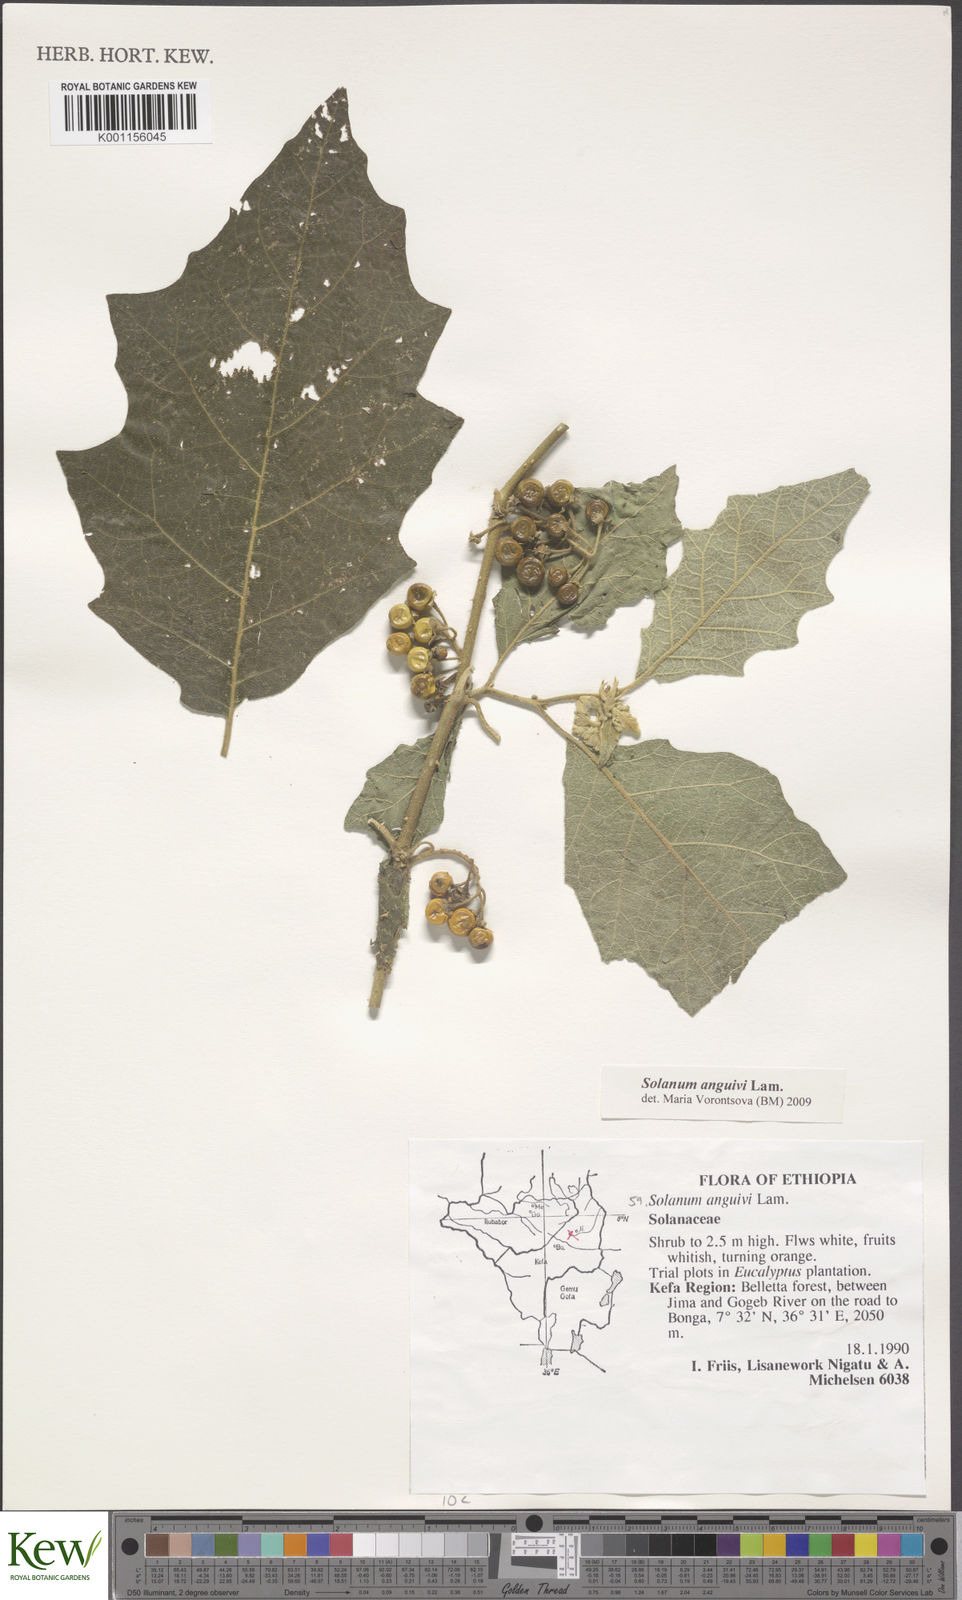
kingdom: Plantae
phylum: Tracheophyta
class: Magnoliopsida
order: Solanales
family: Solanaceae
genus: Solanum
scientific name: Solanum anguivi
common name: Forest bitterberry
